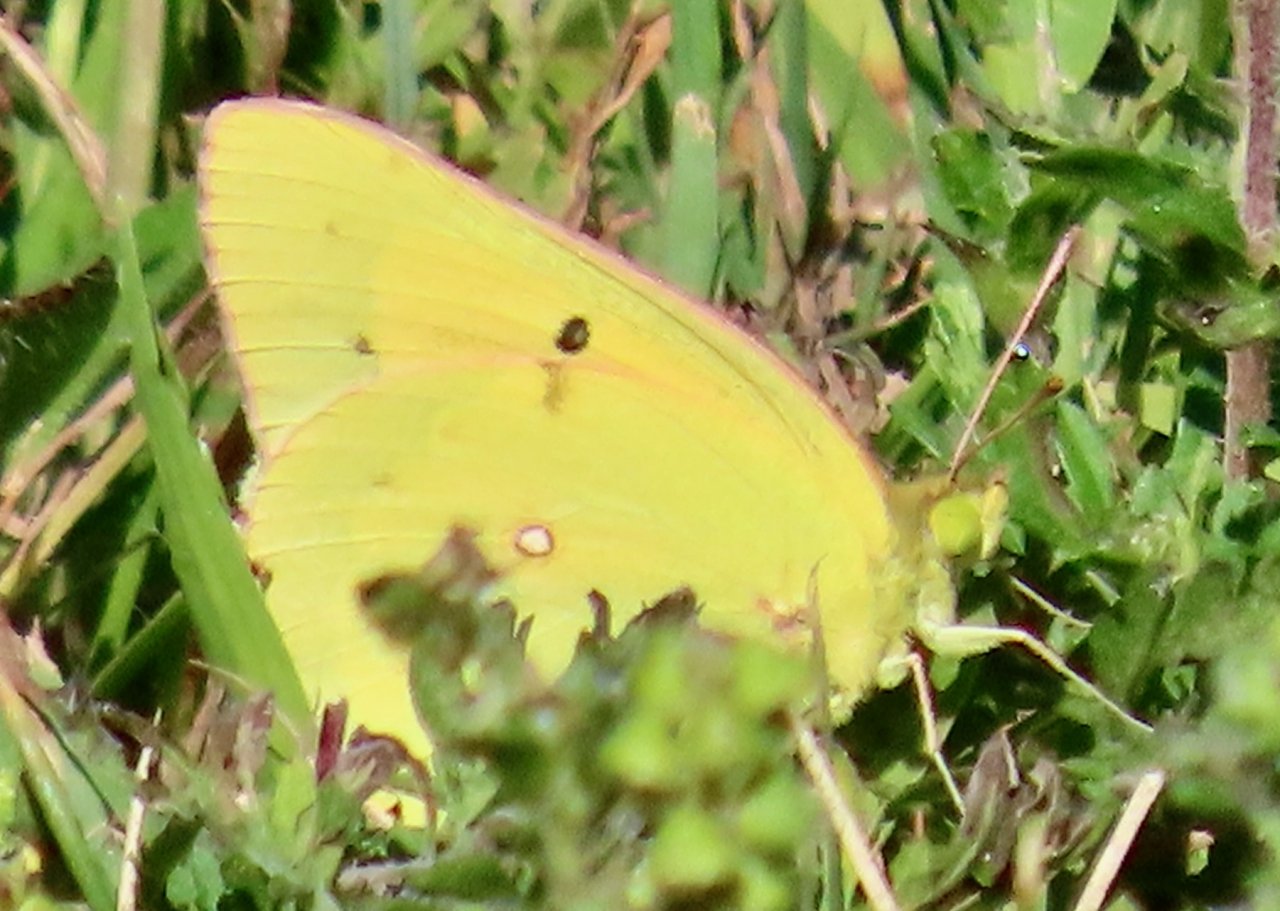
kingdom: Animalia
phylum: Arthropoda
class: Insecta
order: Lepidoptera
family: Pieridae
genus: Colias
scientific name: Colias eurytheme
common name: Orange Sulphur
